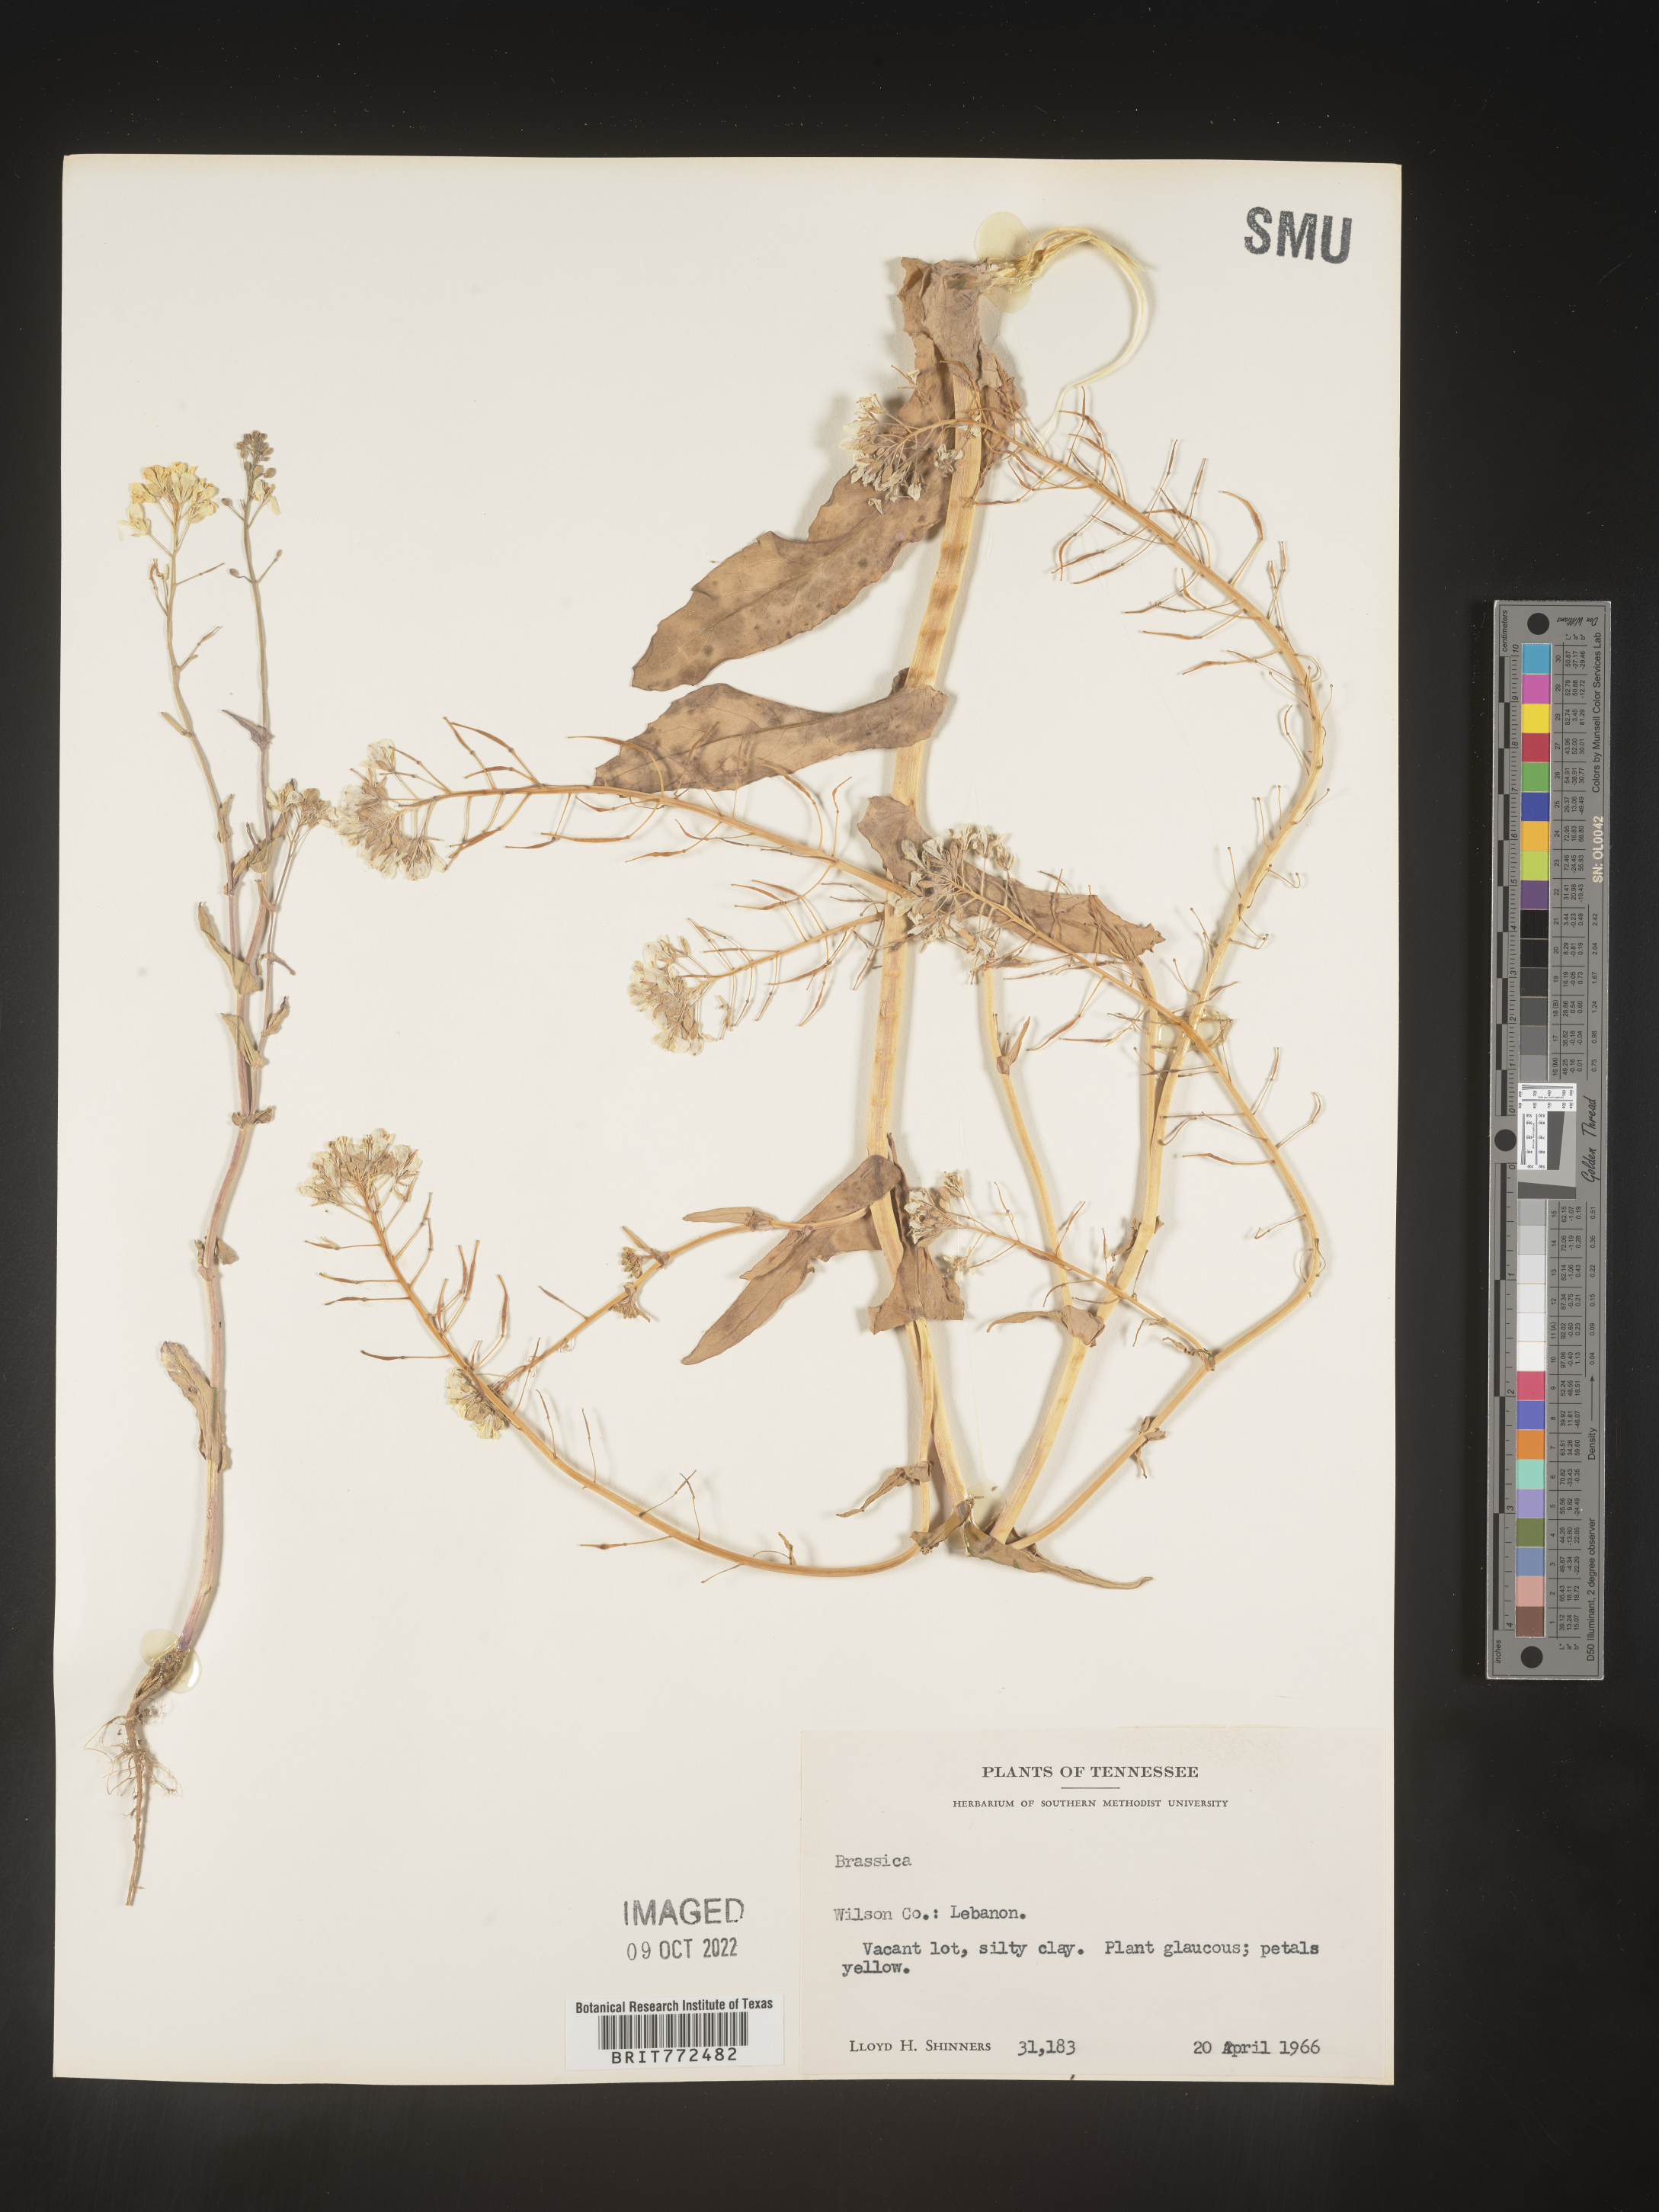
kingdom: Plantae
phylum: Tracheophyta
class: Magnoliopsida
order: Brassicales
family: Brassicaceae
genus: Brassica
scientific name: Brassica
